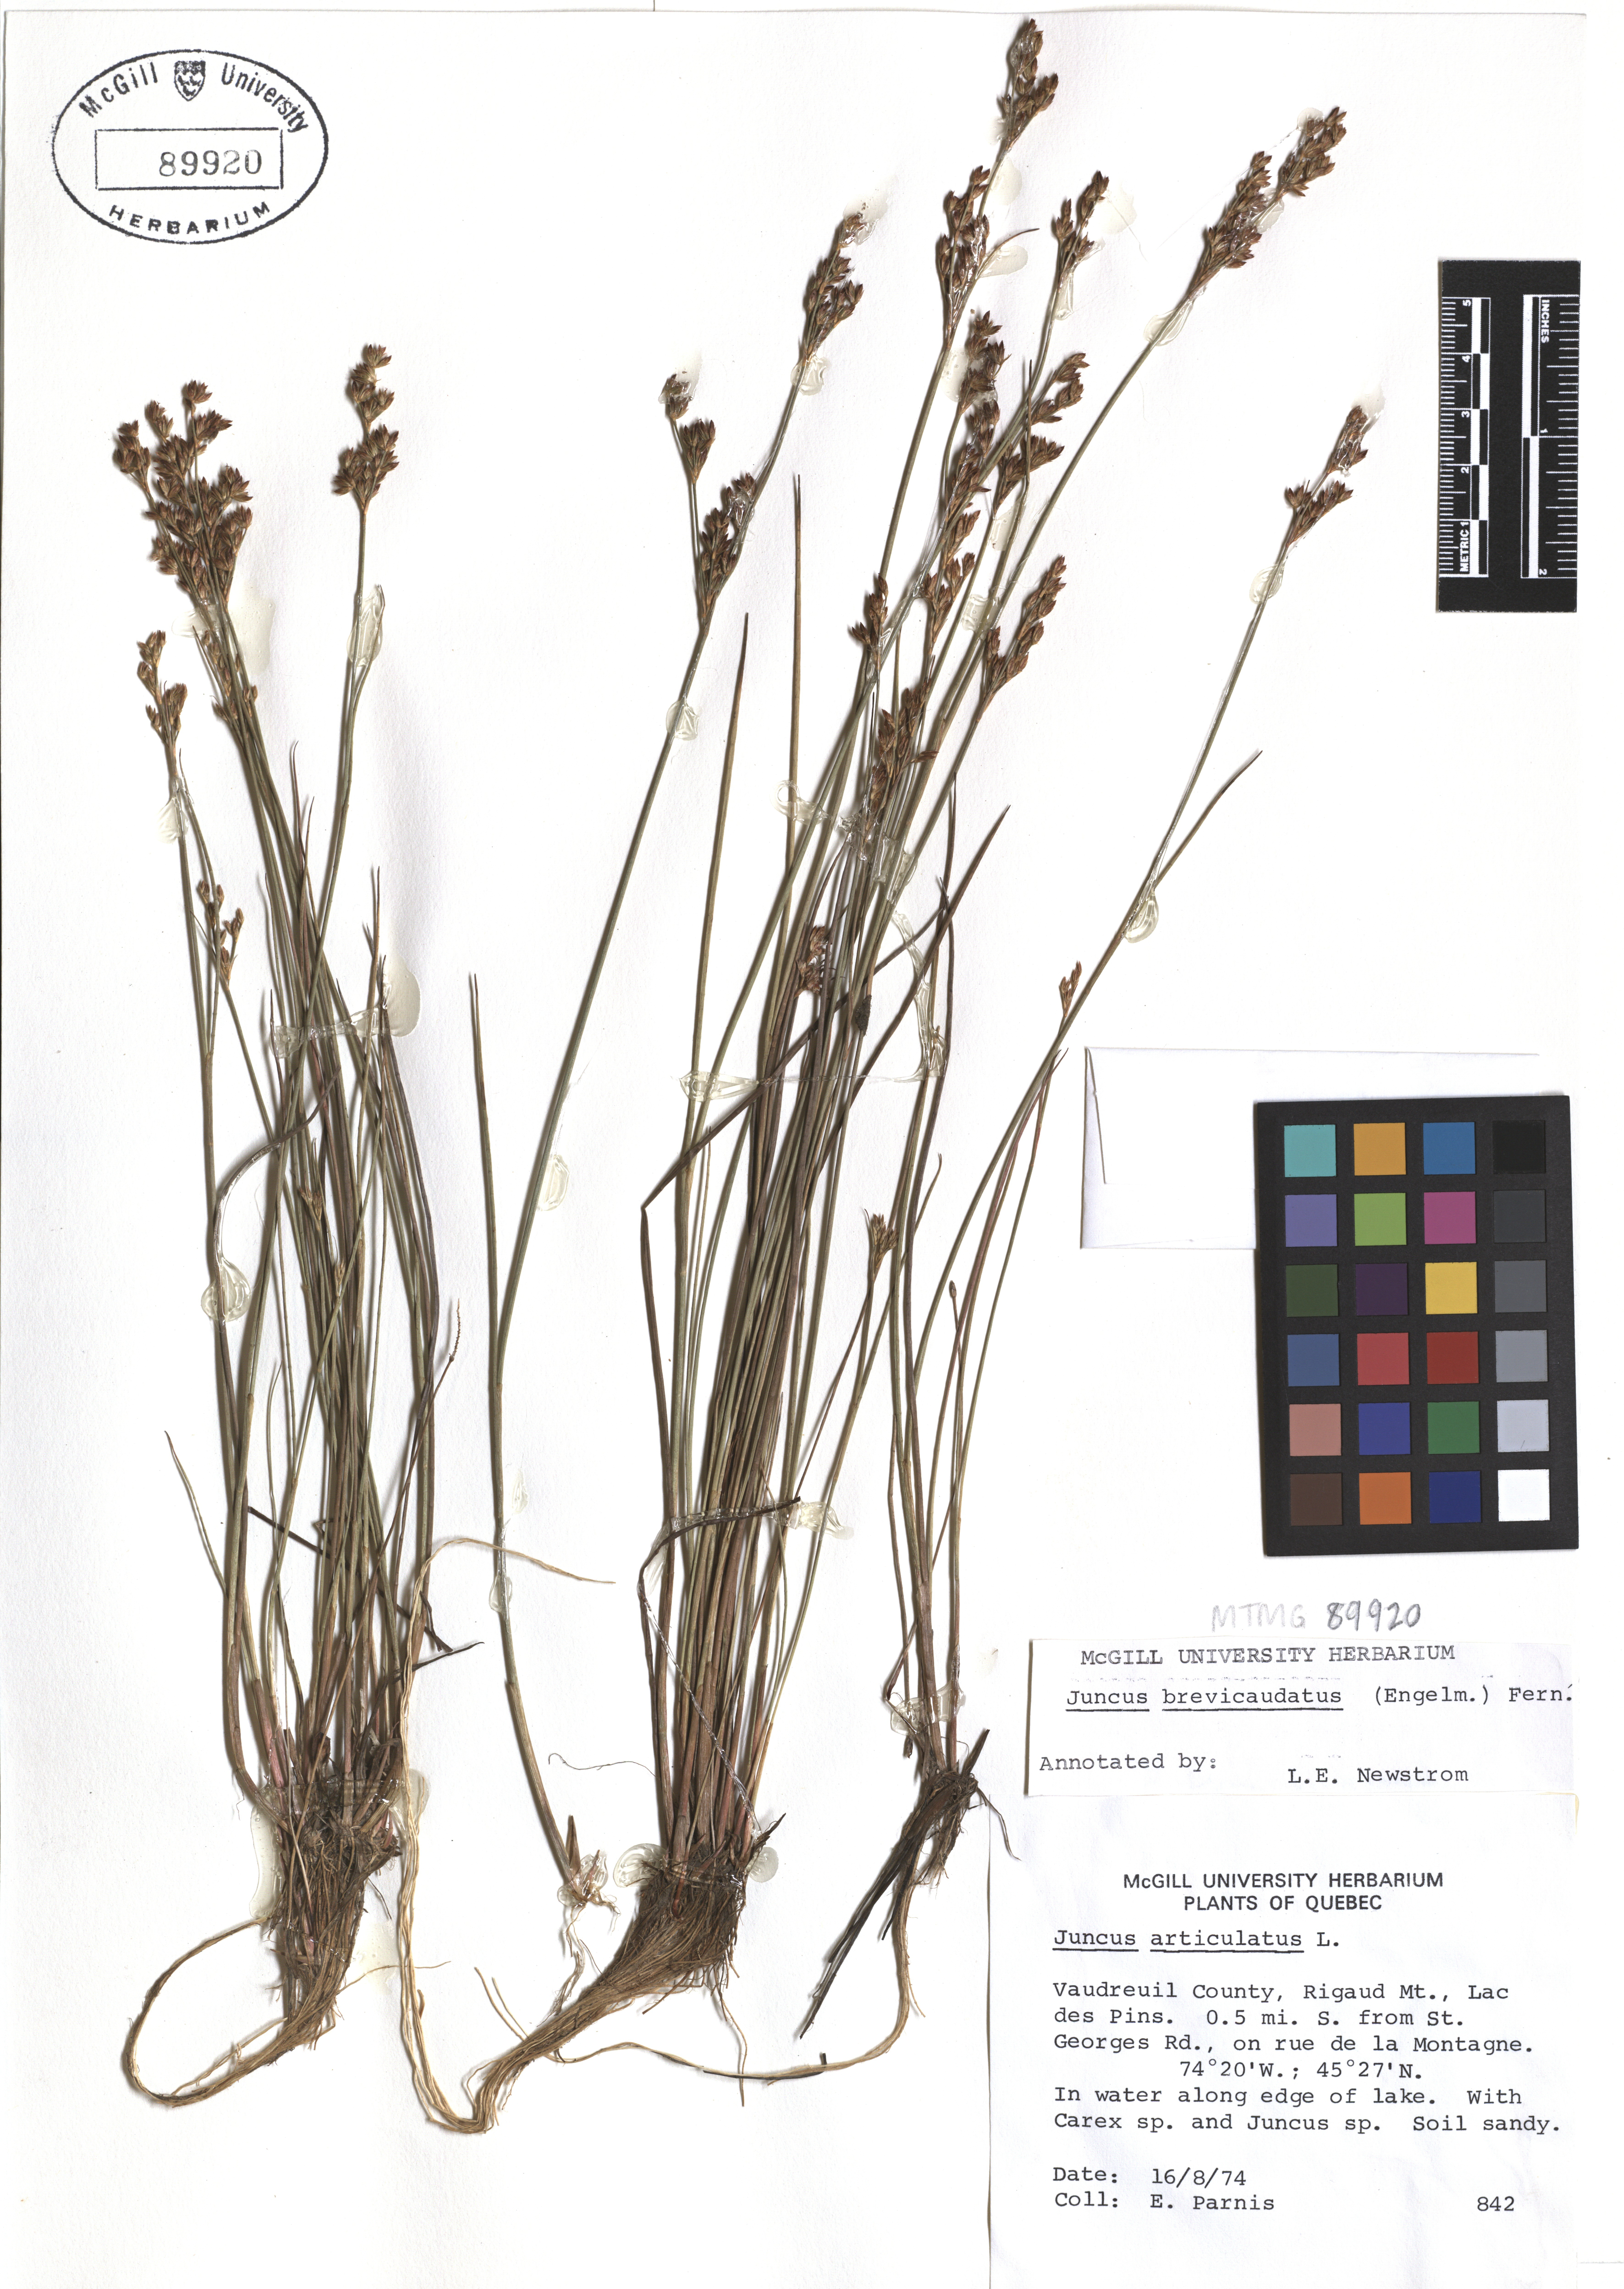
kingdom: Plantae
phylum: Tracheophyta
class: Liliopsida
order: Poales
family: Juncaceae
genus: Juncus
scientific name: Juncus brevicaudatus
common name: Narrow-panicle rush
